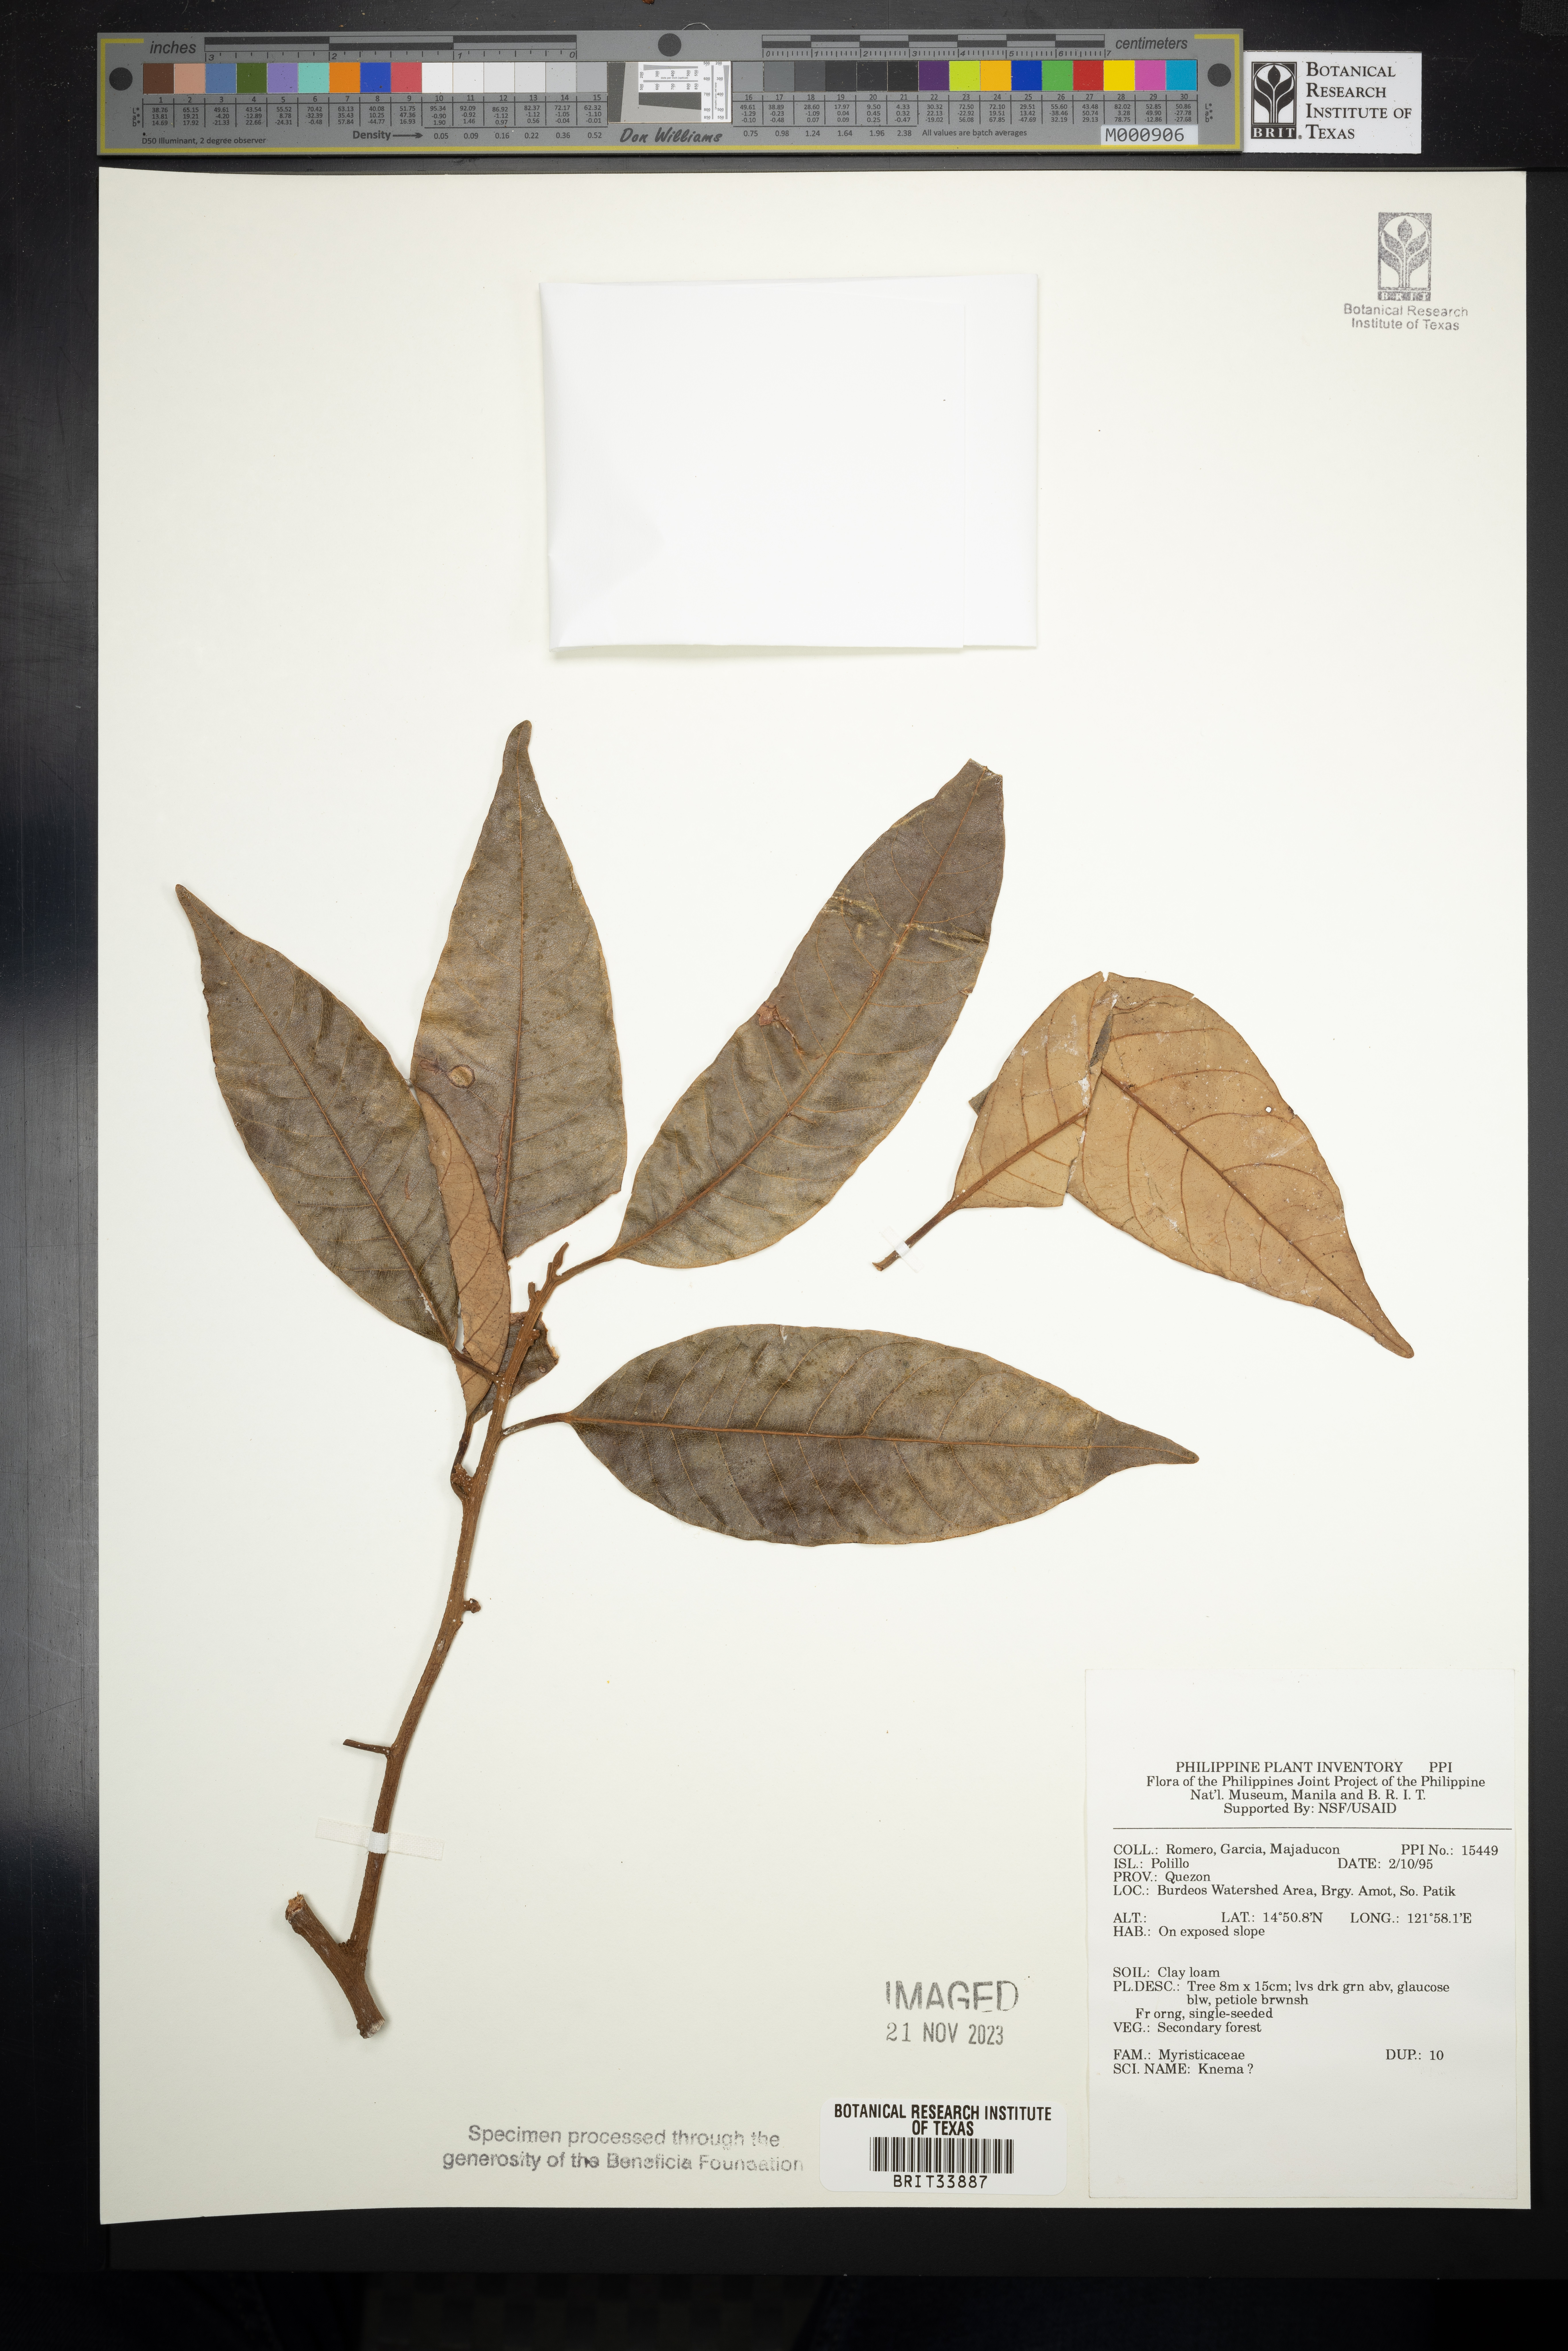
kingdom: Plantae
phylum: Tracheophyta
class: Magnoliopsida
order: Magnoliales
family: Myristicaceae
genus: Knema
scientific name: Knema
